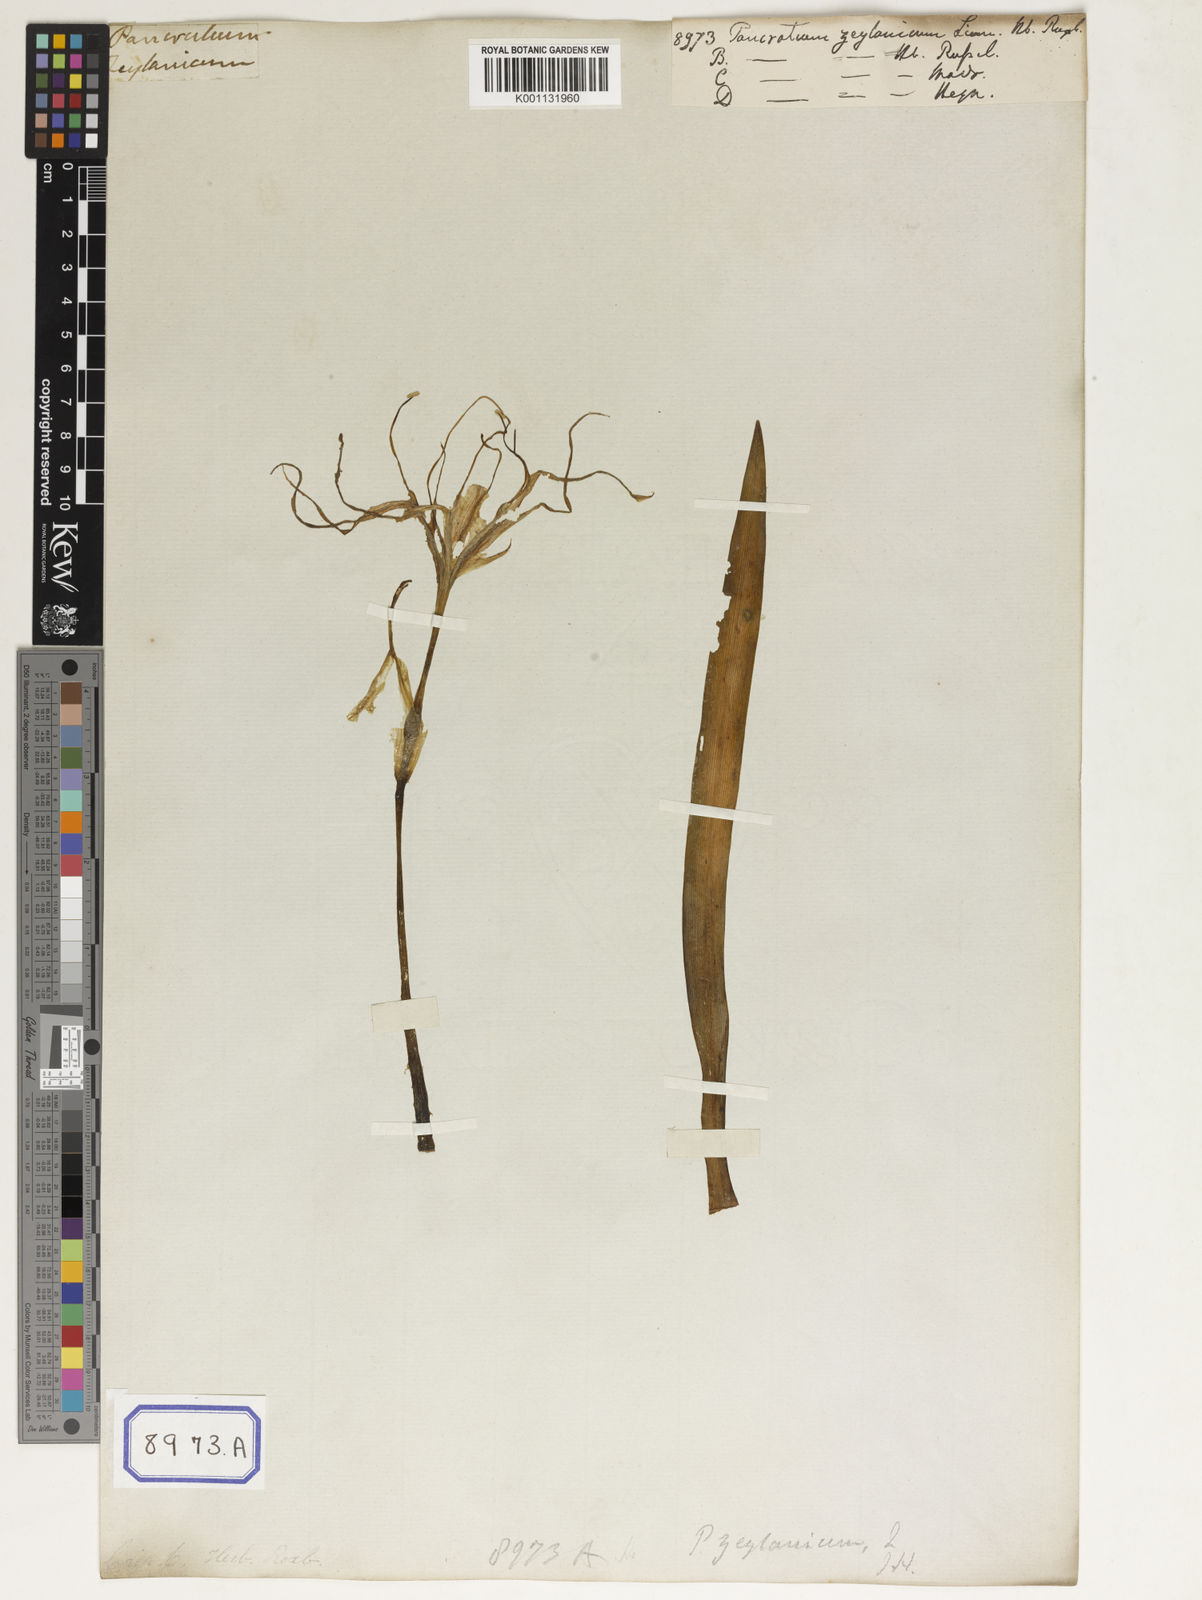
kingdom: Plantae
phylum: Tracheophyta
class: Liliopsida
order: Asparagales
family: Amaryllidaceae
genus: Pancratium
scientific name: Pancratium zeylanicum
